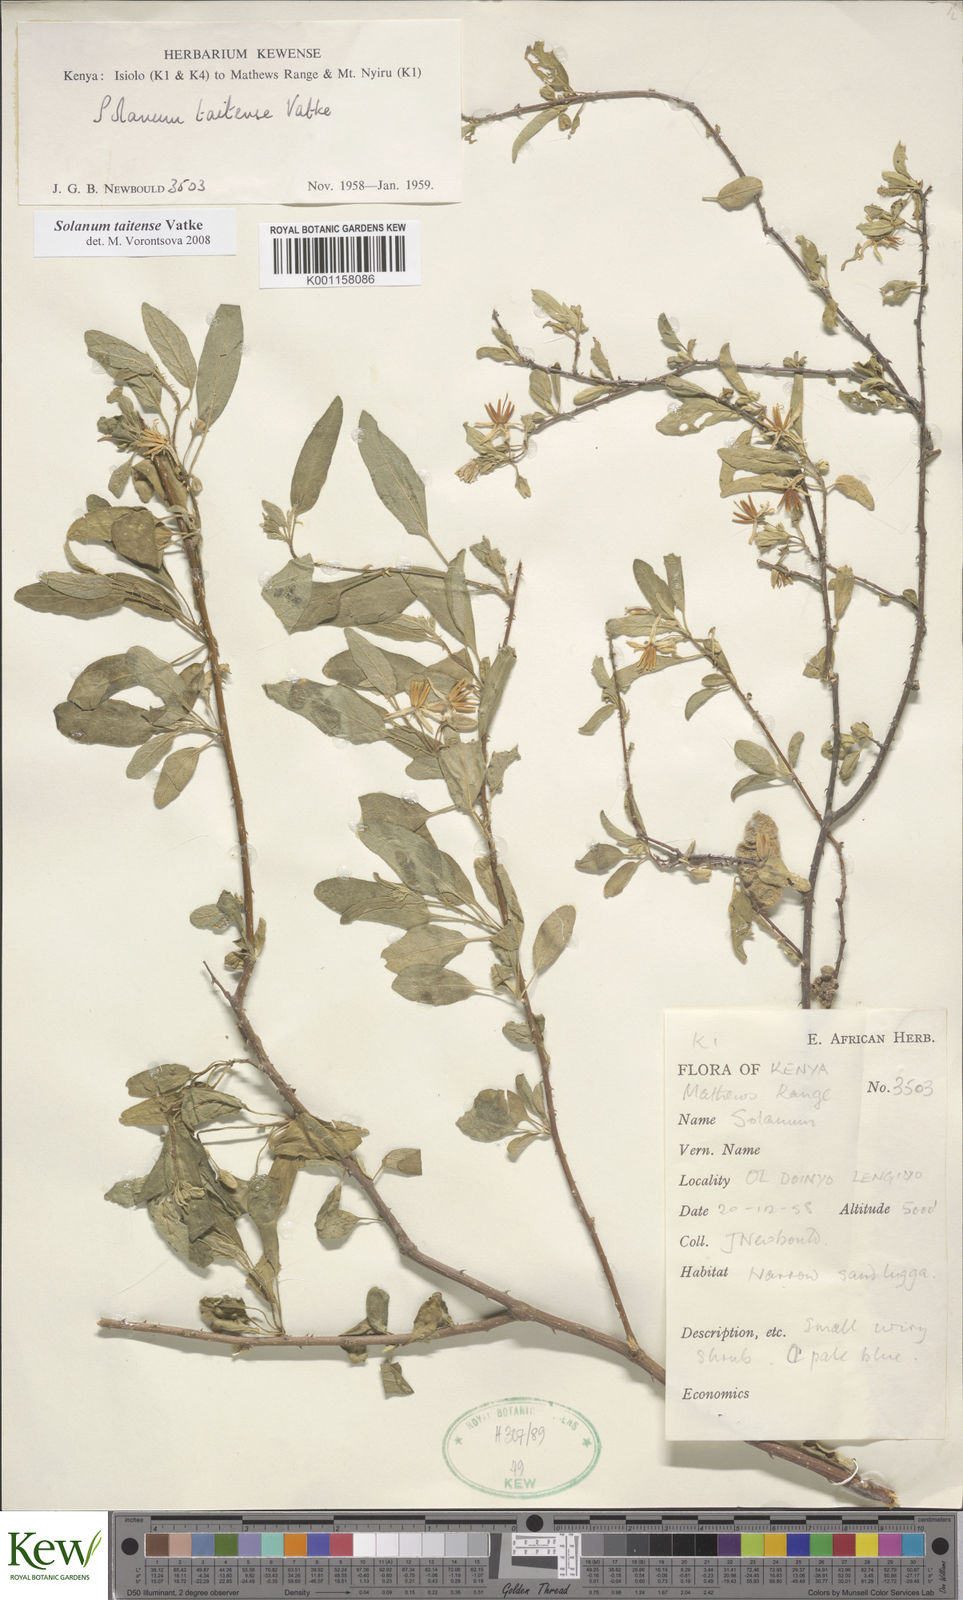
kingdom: Plantae
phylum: Tracheophyta
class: Magnoliopsida
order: Solanales
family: Solanaceae
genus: Solanum
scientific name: Solanum taitense
